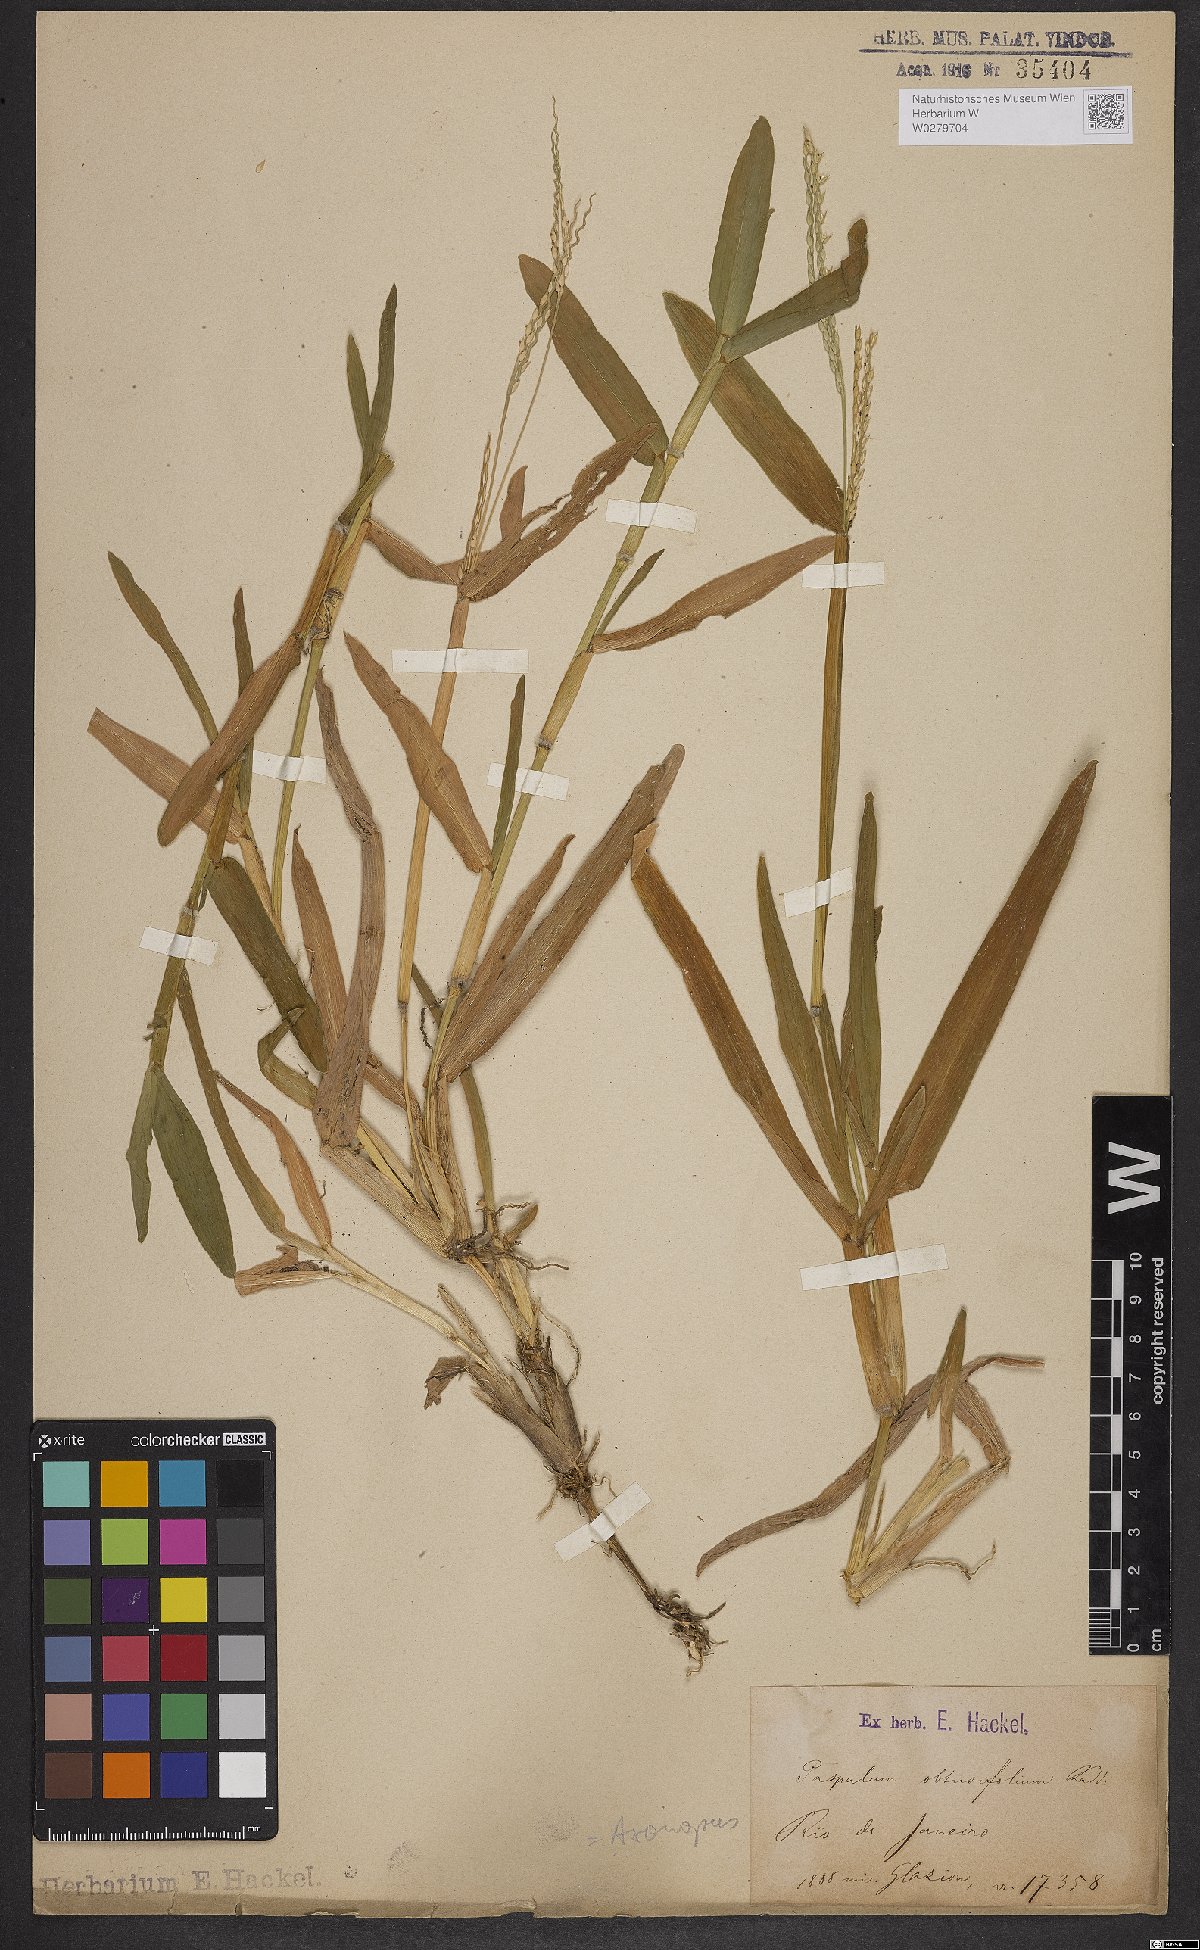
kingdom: Plantae
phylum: Tracheophyta
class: Liliopsida
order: Poales
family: Poaceae
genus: Axonopus
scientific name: Axonopus furcatus
